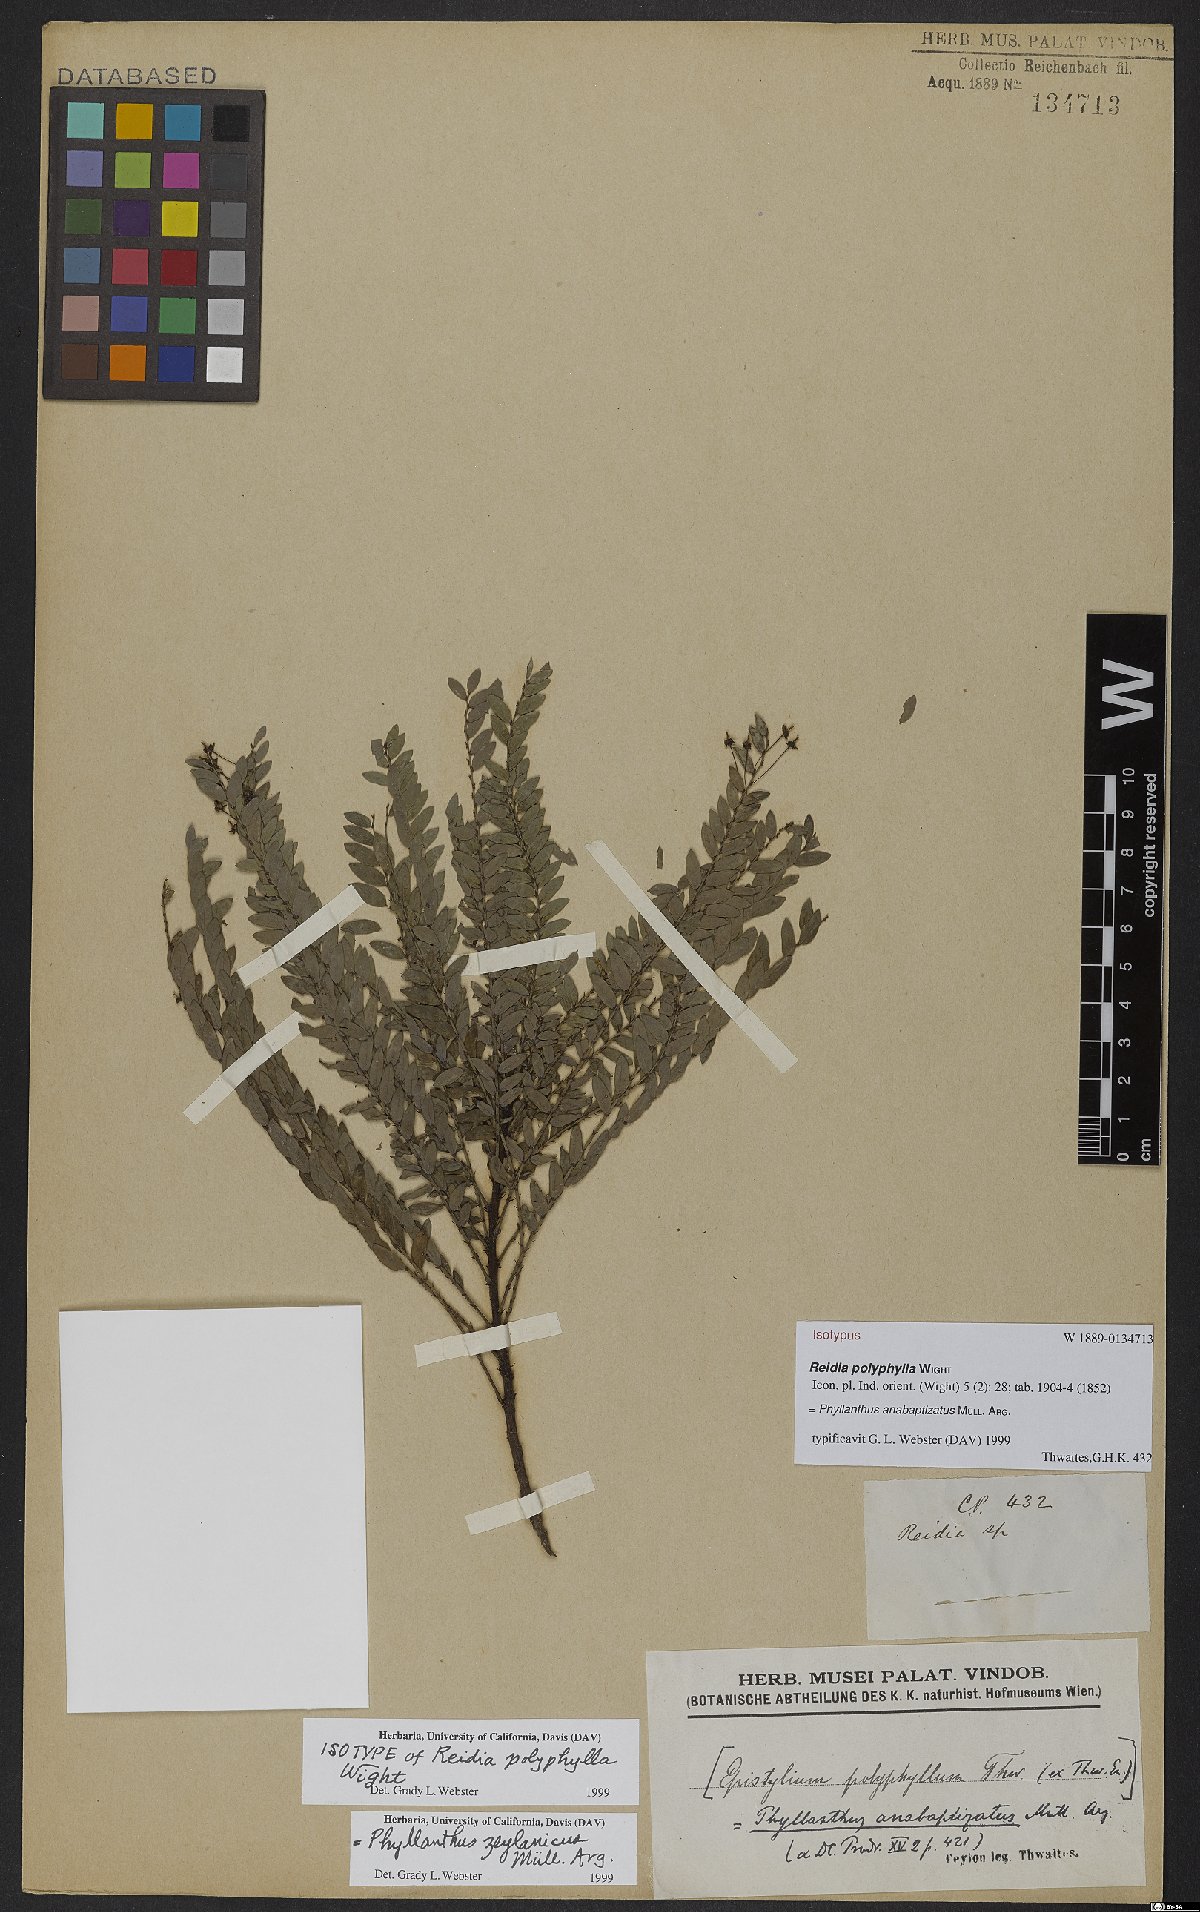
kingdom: Plantae
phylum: Tracheophyta
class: Magnoliopsida
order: Malpighiales
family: Phyllanthaceae
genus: Phyllanthus
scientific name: Phyllanthus zeylanicus
